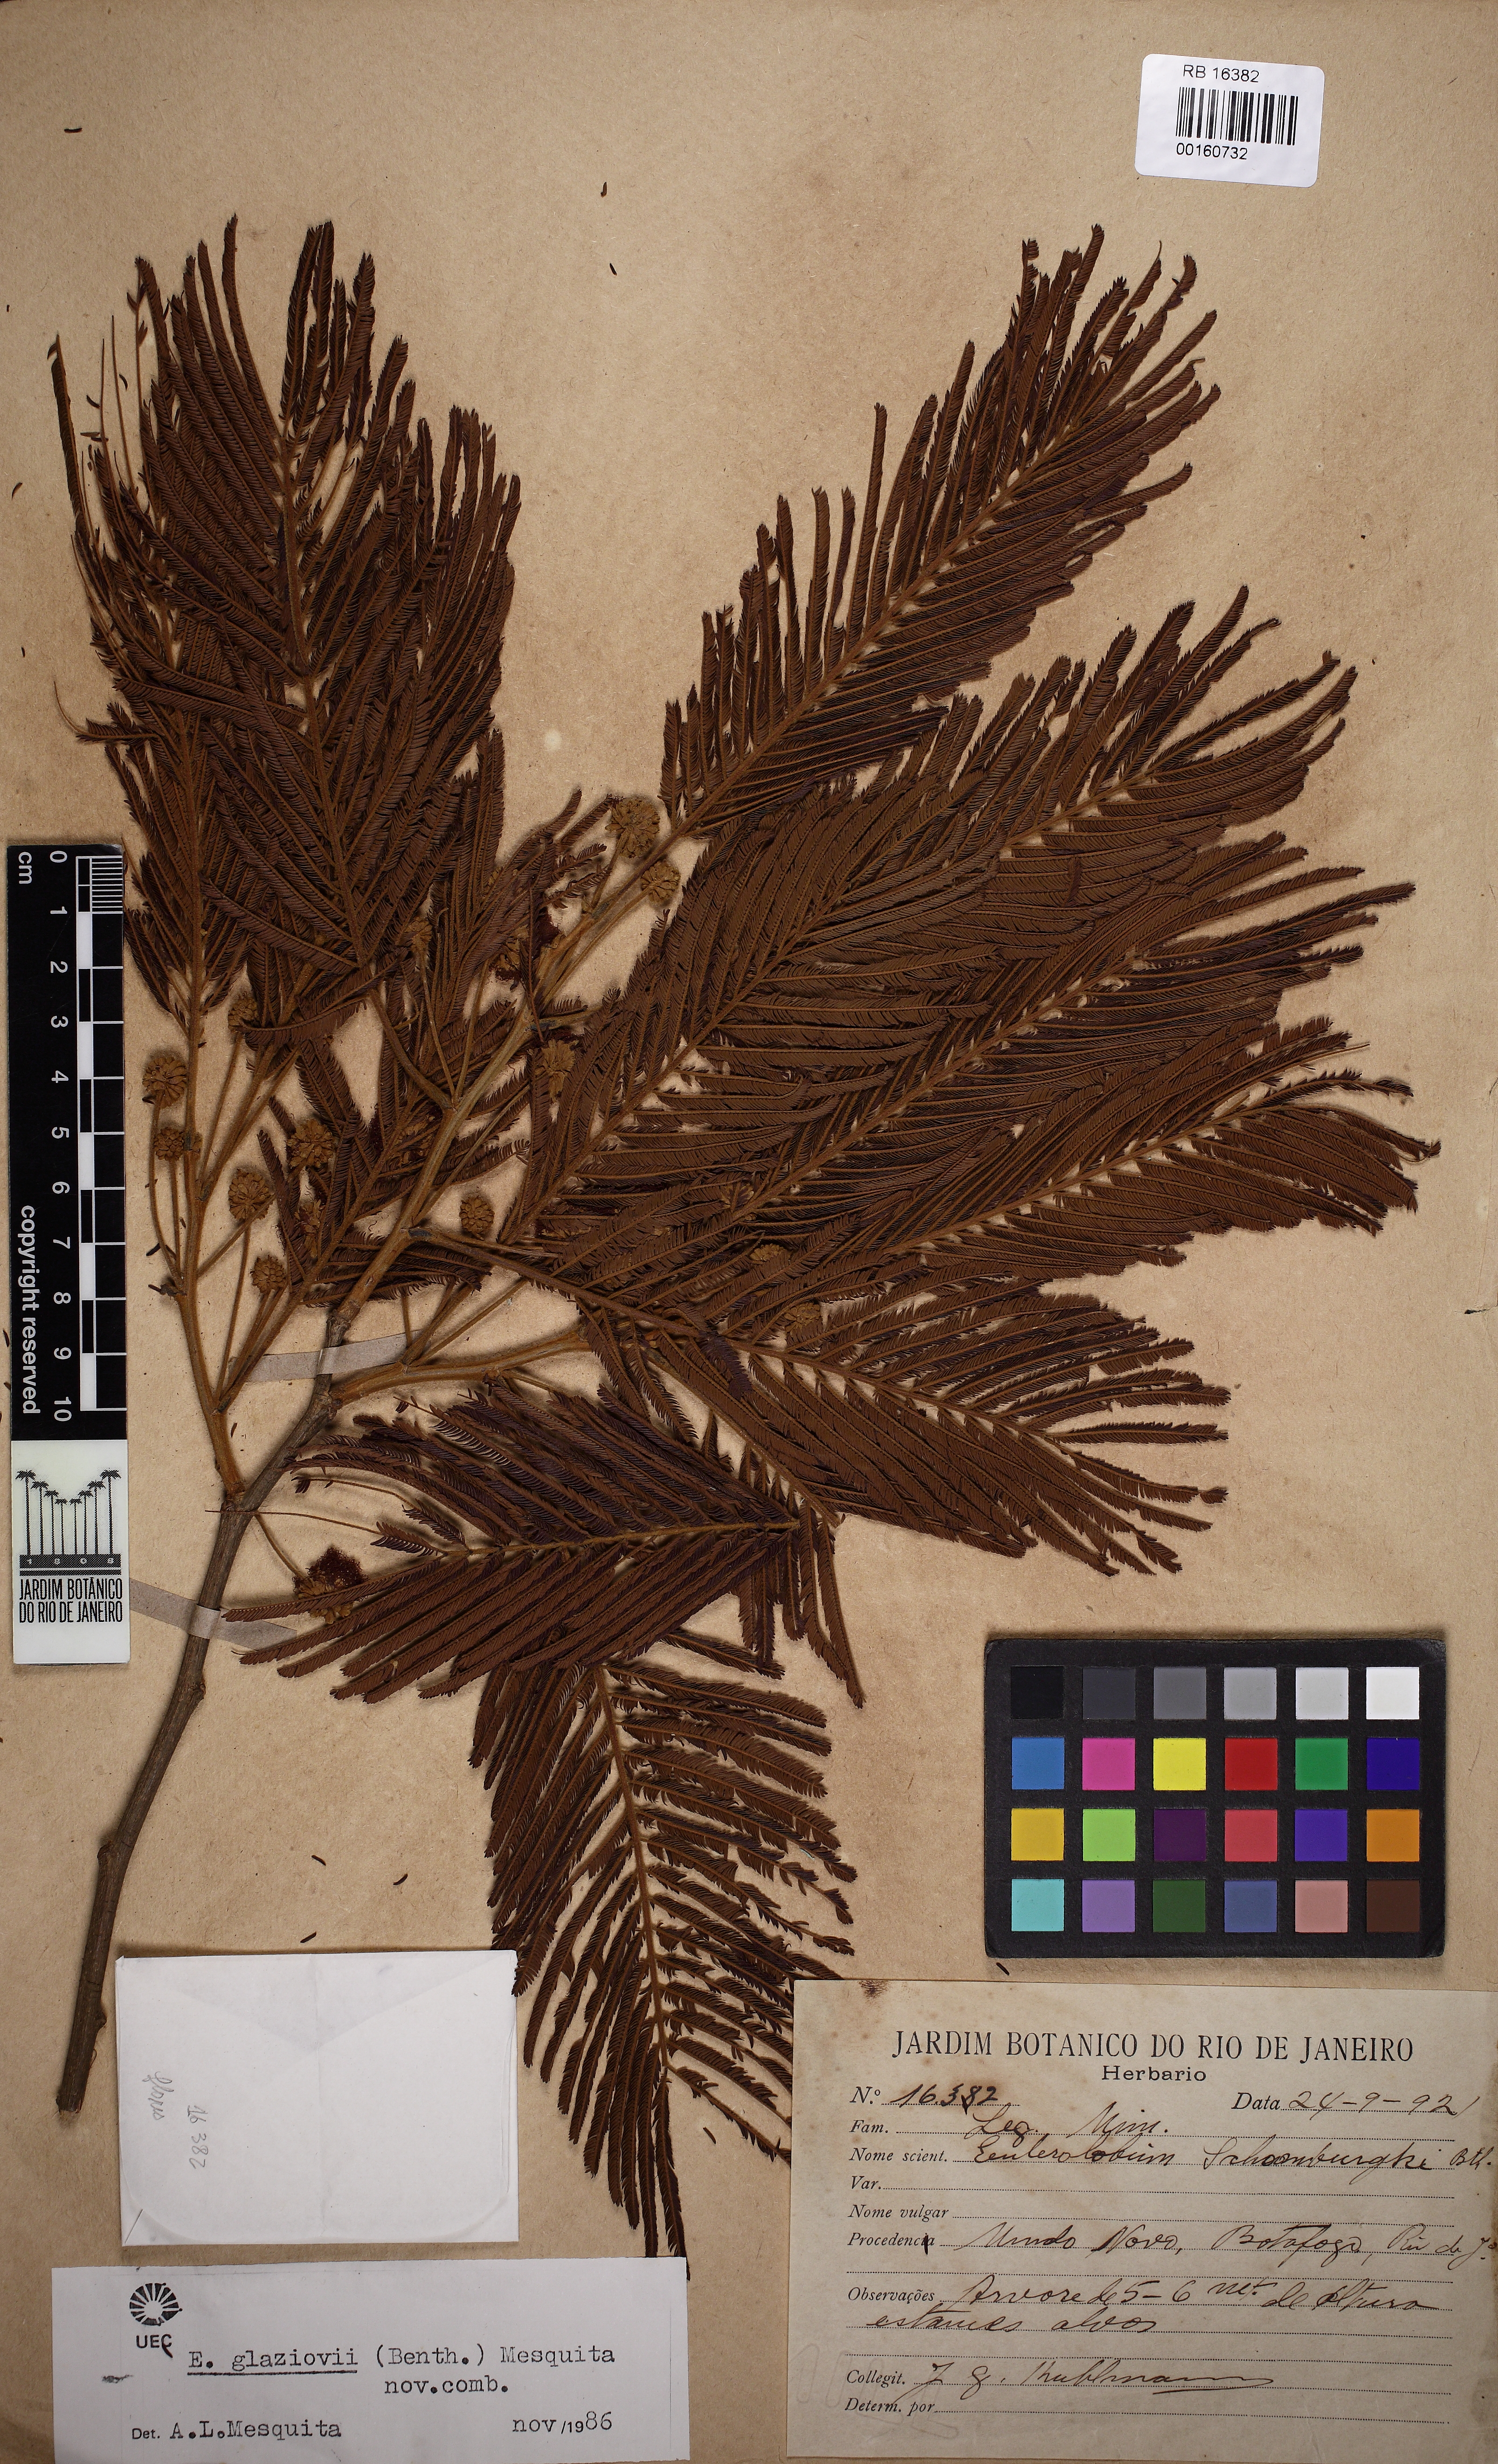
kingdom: Plantae
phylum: Tracheophyta
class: Magnoliopsida
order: Fabales
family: Fabaceae
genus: Enterolobium
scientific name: Enterolobium glaziovii
